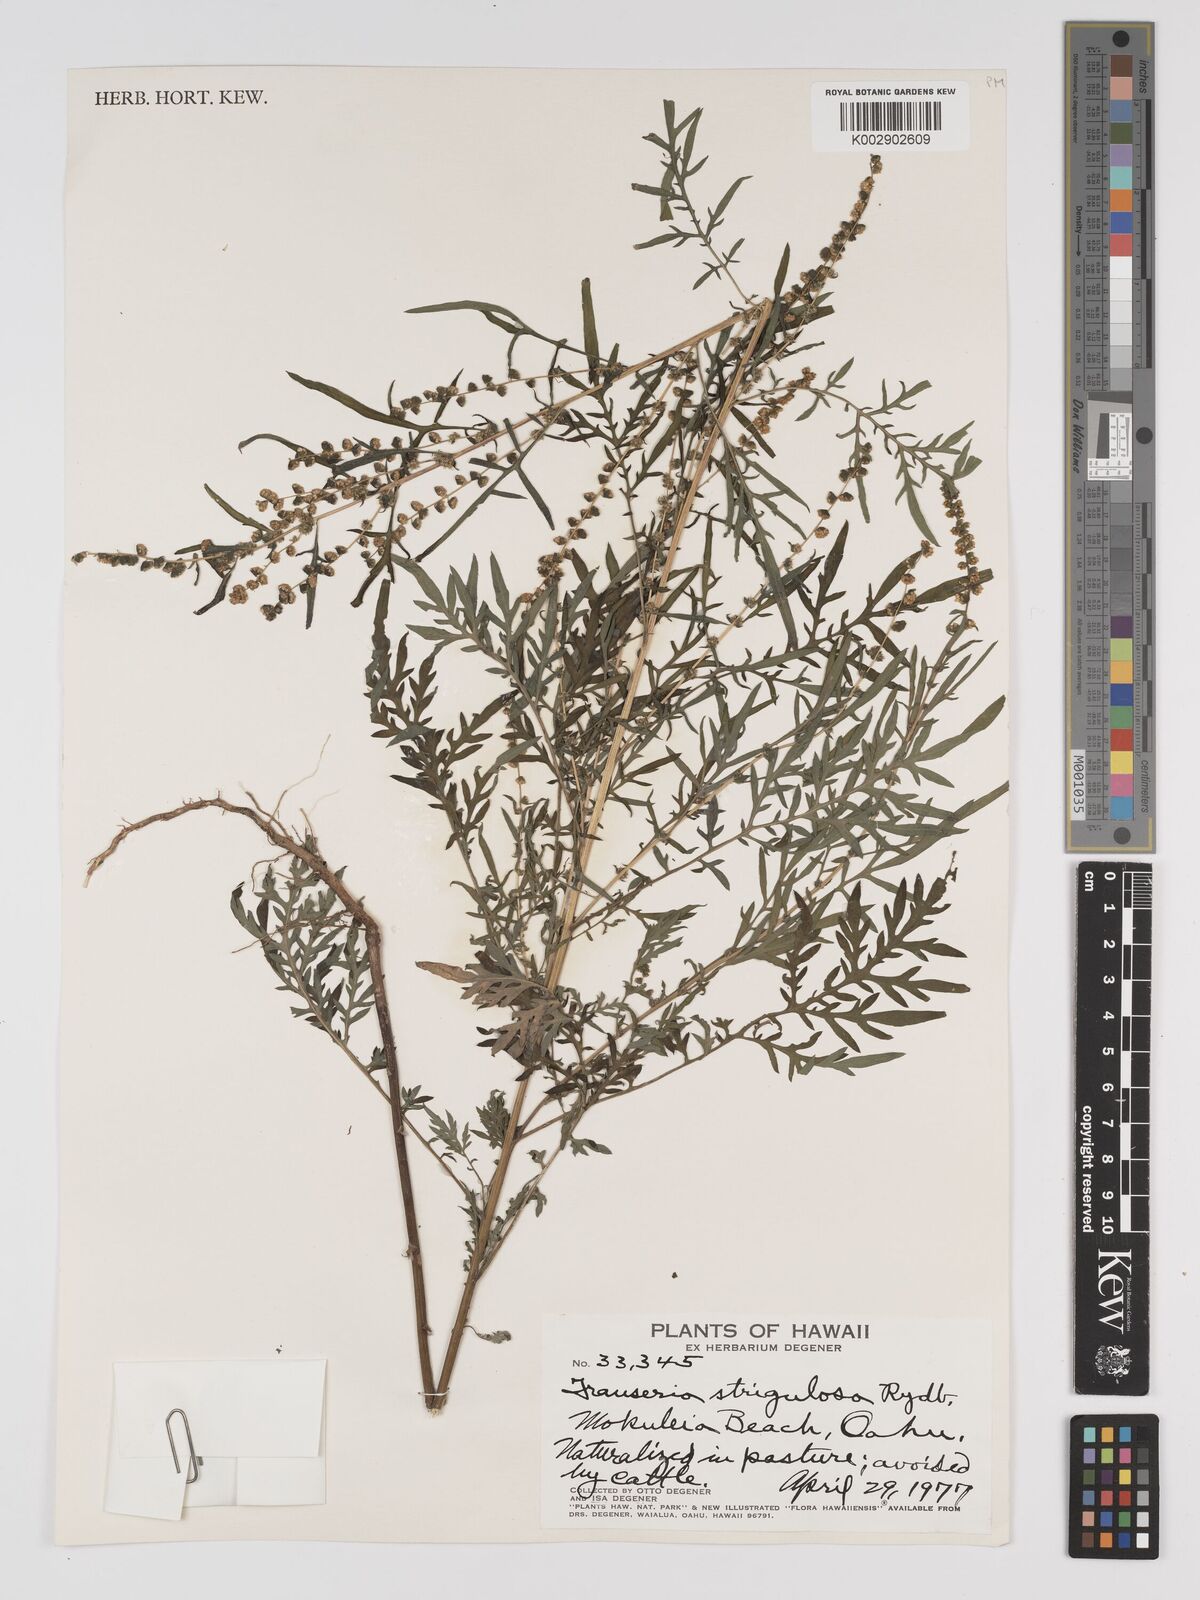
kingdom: Plantae
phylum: Tracheophyta
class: Magnoliopsida
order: Asterales
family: Asteraceae
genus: Ambrosia
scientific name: Ambrosia
